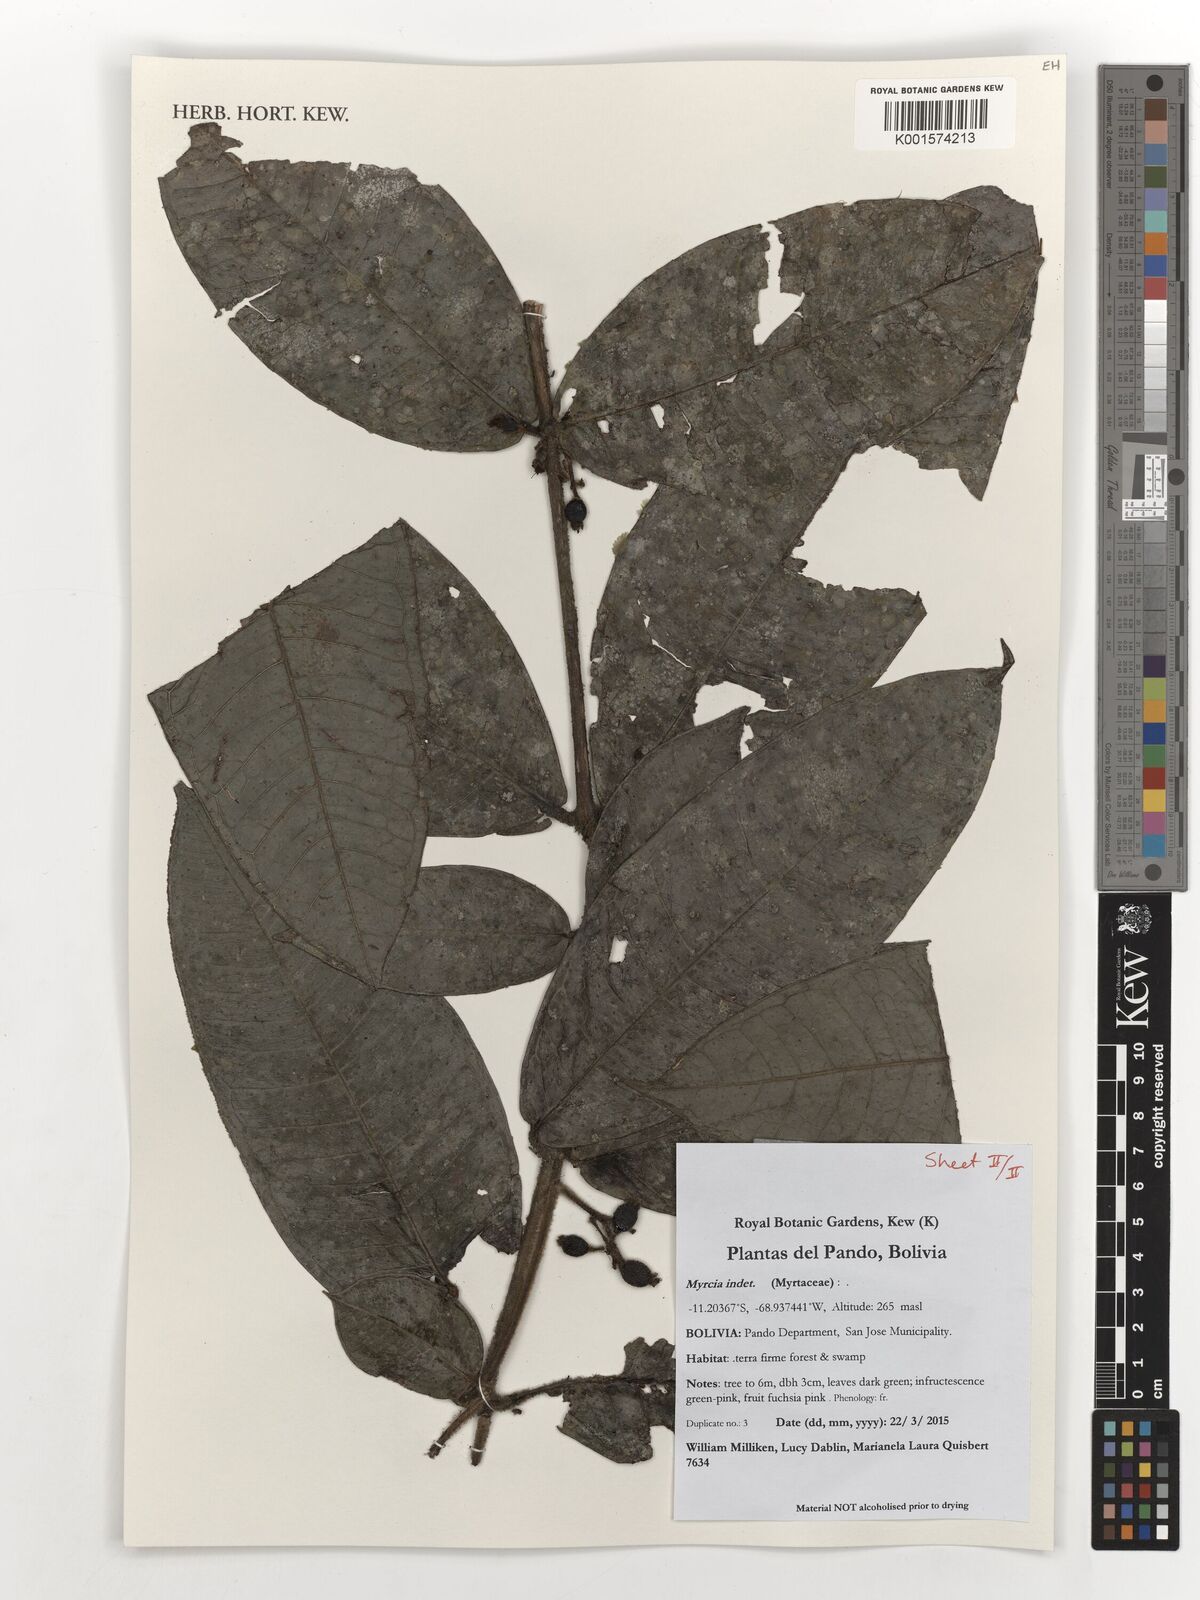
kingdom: Plantae
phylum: Tracheophyta
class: Magnoliopsida
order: Myrtales
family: Myrtaceae
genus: Myrcia
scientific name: Myrcia
